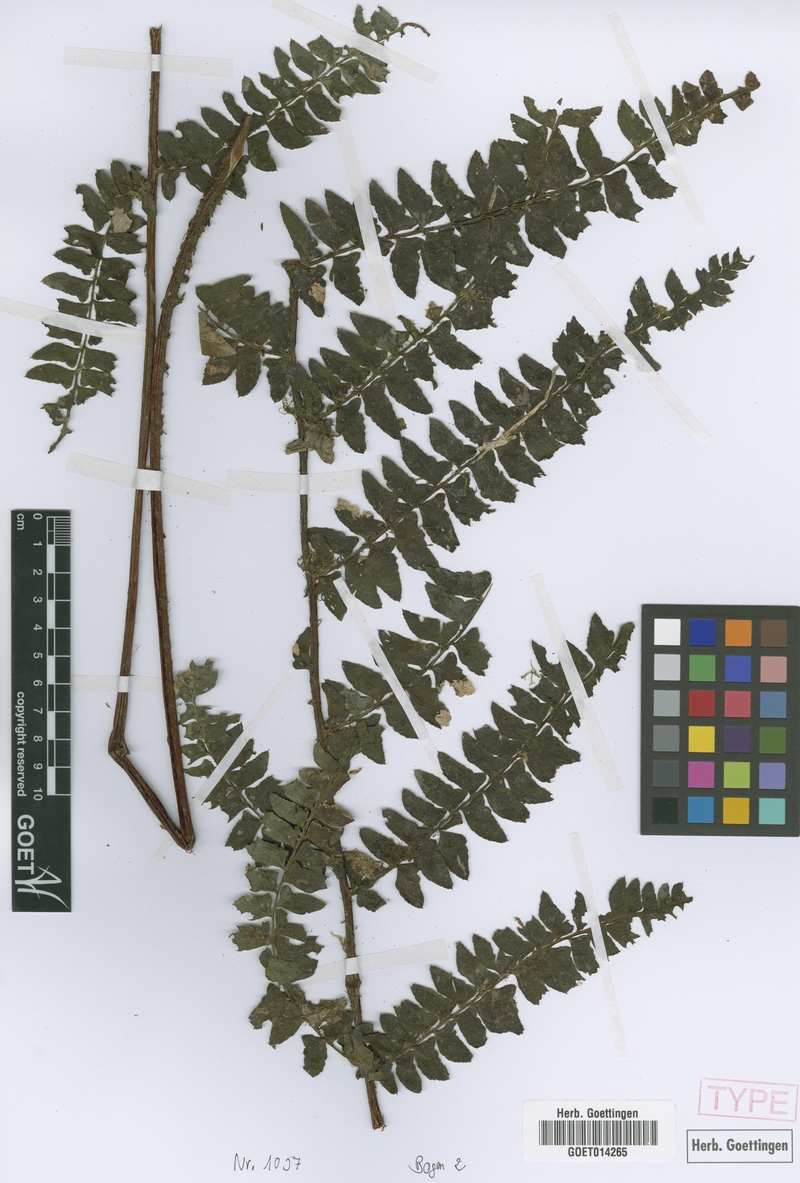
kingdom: Plantae
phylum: Tracheophyta
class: Polypodiopsida
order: Polypodiales
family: Dryopteridaceae
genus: Polystichum
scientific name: Polystichum faucicola
